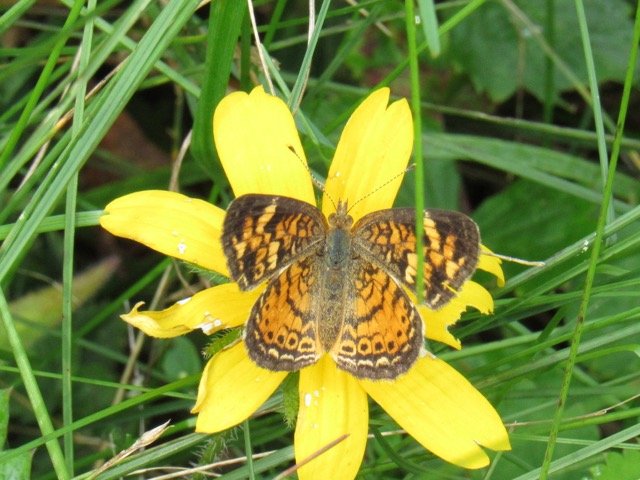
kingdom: Animalia
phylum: Arthropoda
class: Insecta
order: Lepidoptera
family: Nymphalidae
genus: Phyciodes
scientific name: Phyciodes tharos
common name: Pearl Crescent
